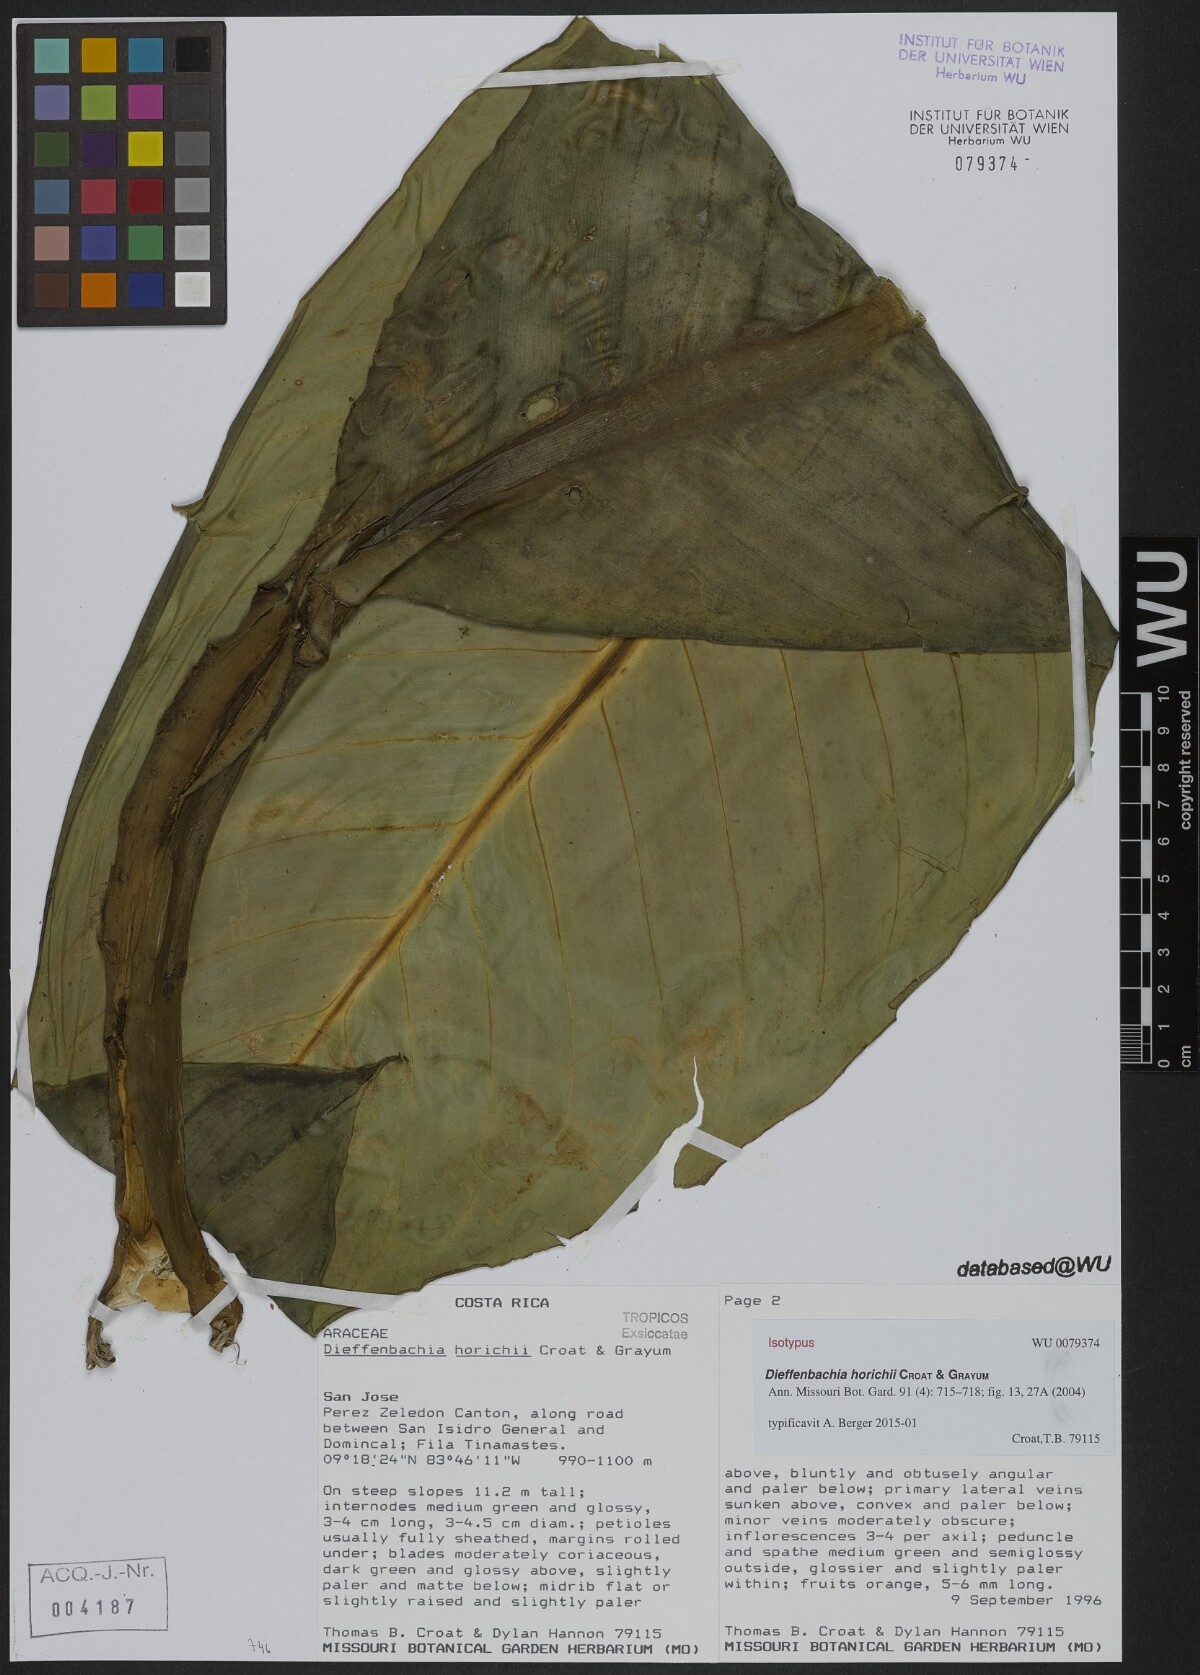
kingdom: Plantae
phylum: Tracheophyta
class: Liliopsida
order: Alismatales
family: Araceae
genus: Dieffenbachia
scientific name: Dieffenbachia horichii
